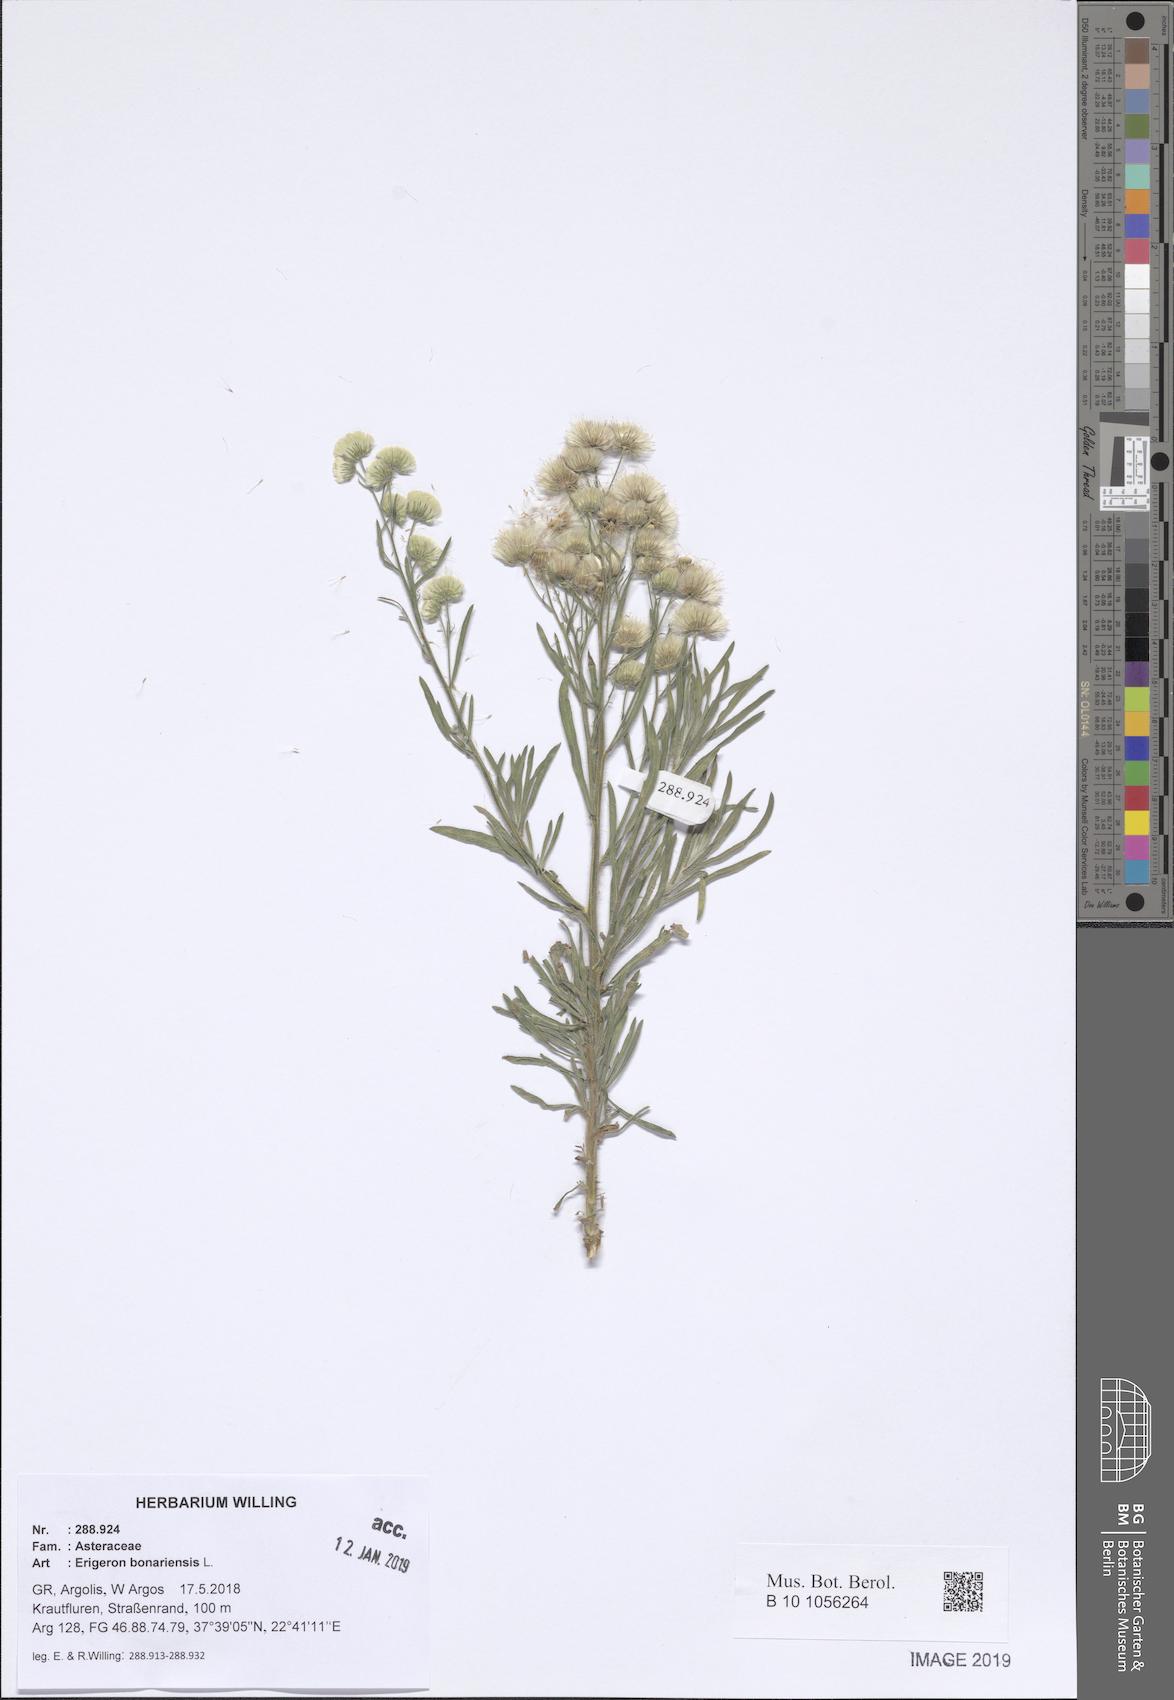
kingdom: Plantae
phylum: Tracheophyta
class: Magnoliopsida
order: Asterales
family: Asteraceae
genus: Erigeron
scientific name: Erigeron bonariensis
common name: Argentine fleabane
